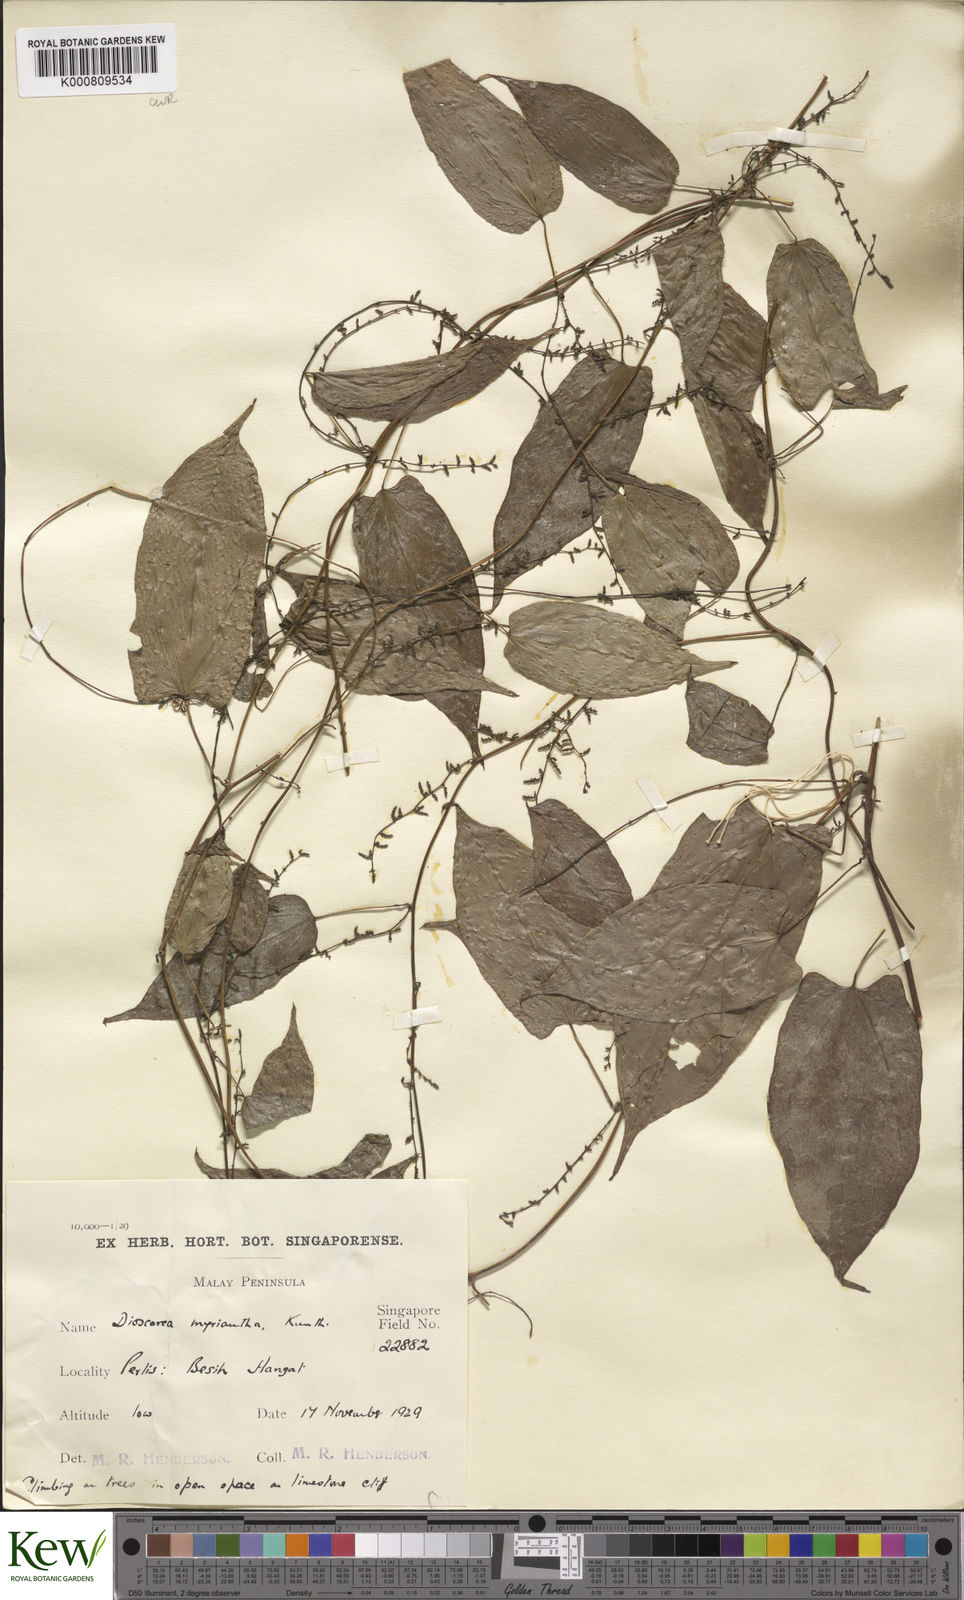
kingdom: Plantae
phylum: Tracheophyta
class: Liliopsida
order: Dioscoreales
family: Dioscoreaceae
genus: Dioscorea
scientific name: Dioscorea filiformis
